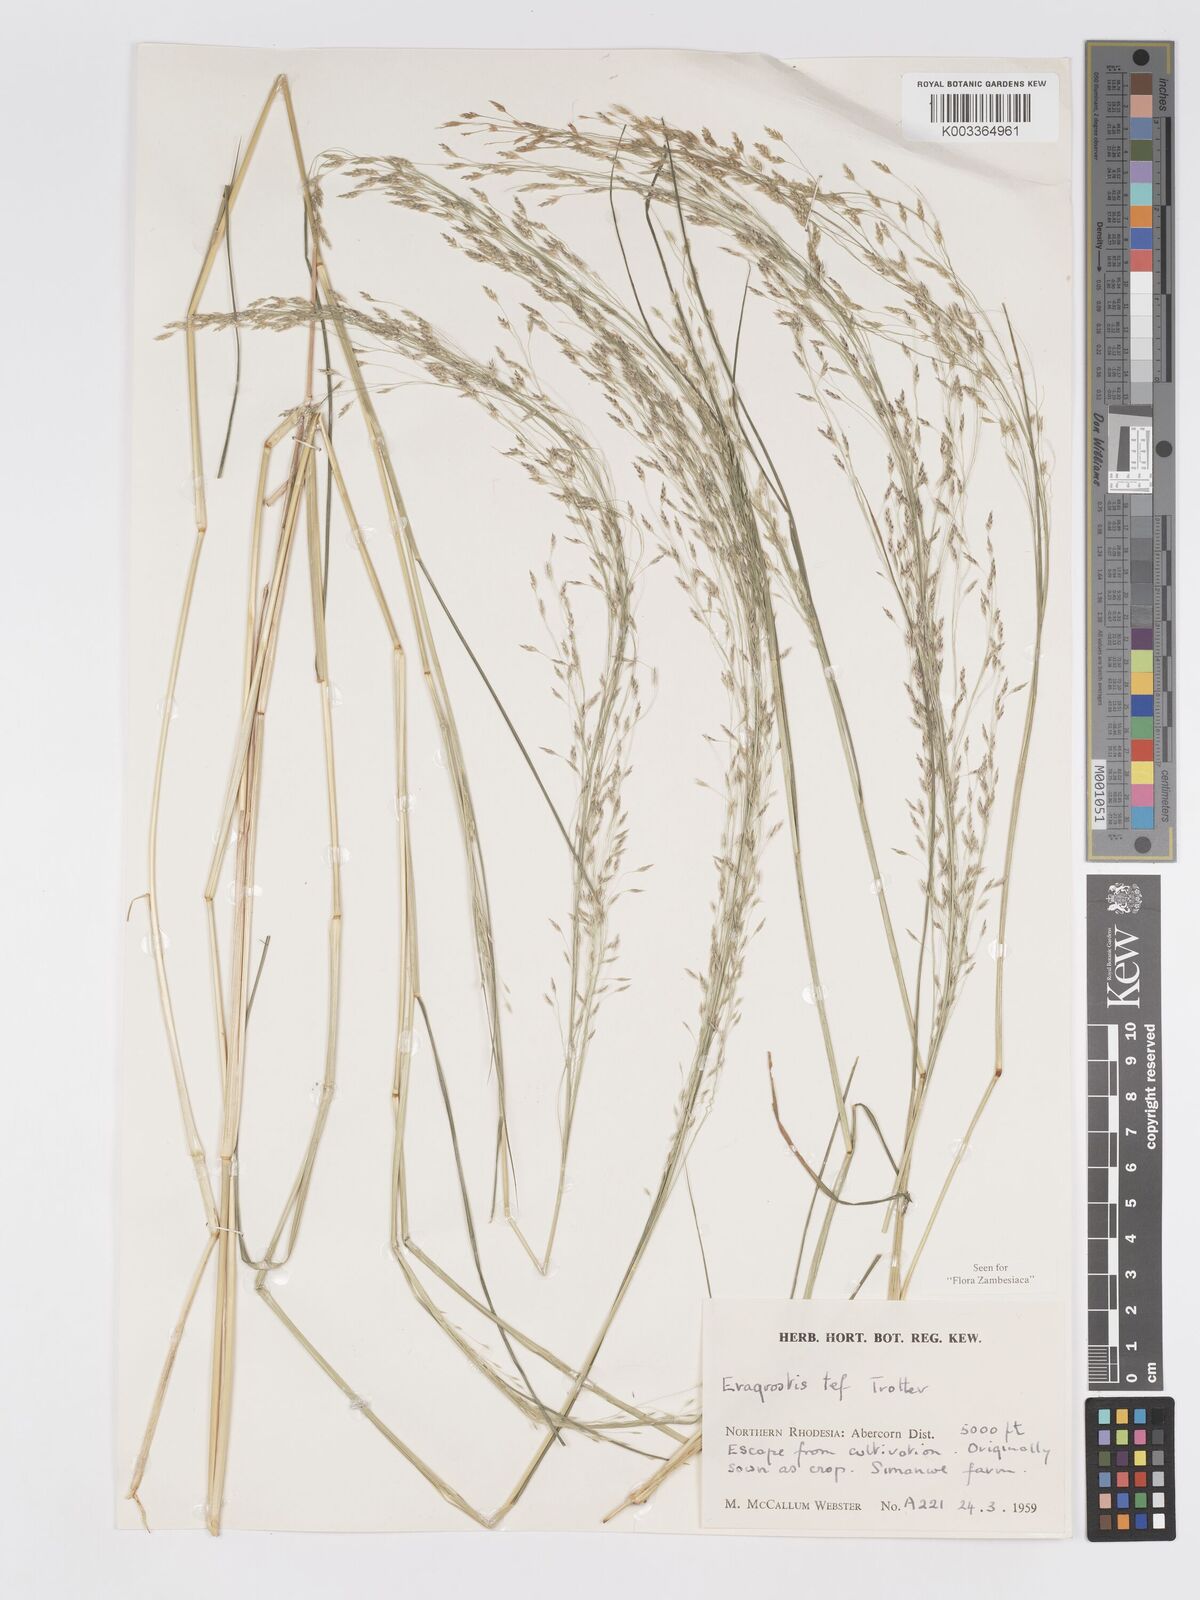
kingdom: Plantae
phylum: Tracheophyta
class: Liliopsida
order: Poales
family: Poaceae
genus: Eragrostis
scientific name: Eragrostis tef
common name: Teff
